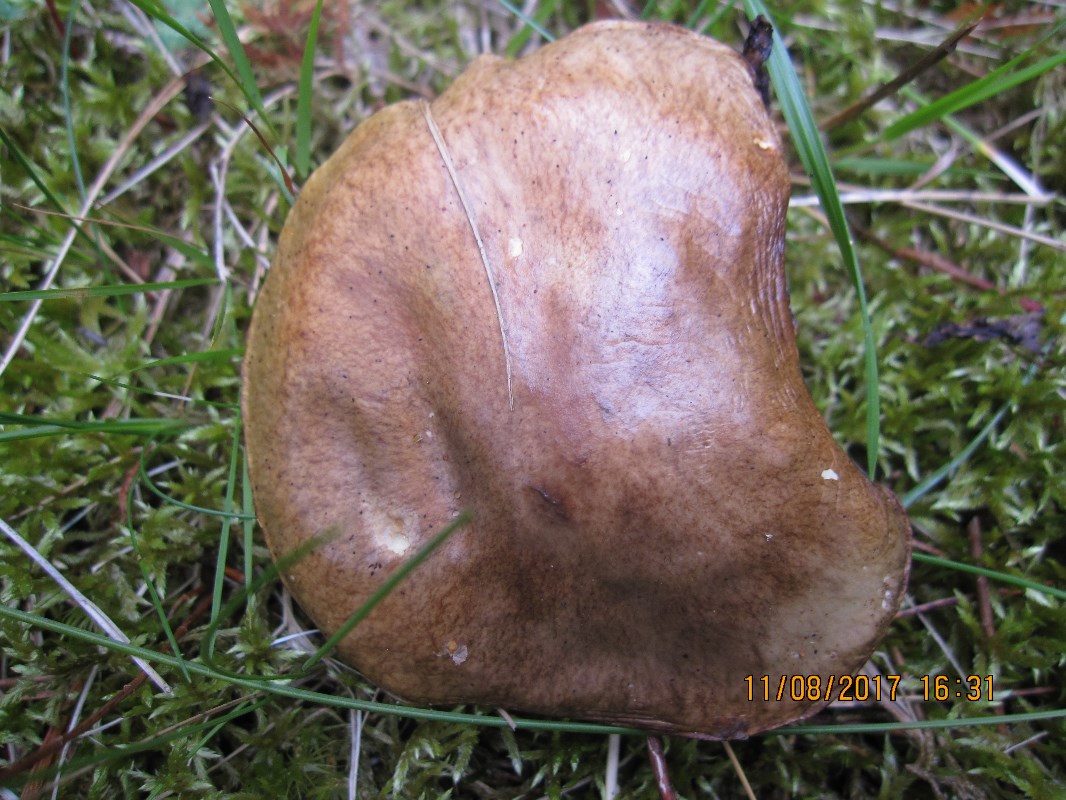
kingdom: Fungi
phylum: Basidiomycota
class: Agaricomycetes
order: Boletales
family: Suillaceae
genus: Suillus
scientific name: Suillus granulatus
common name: kornet slimrørhat
